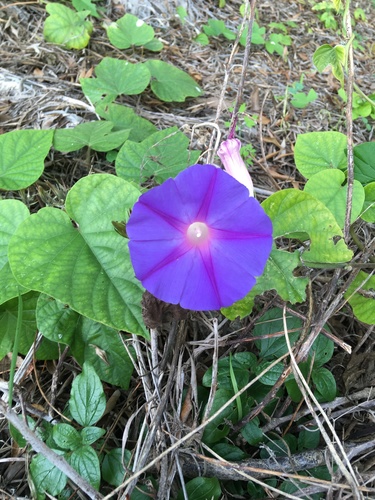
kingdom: Plantae
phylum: Tracheophyta
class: Magnoliopsida
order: Solanales
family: Convolvulaceae
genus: Ipomoea
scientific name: Ipomoea indica
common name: Blue dawnflower
